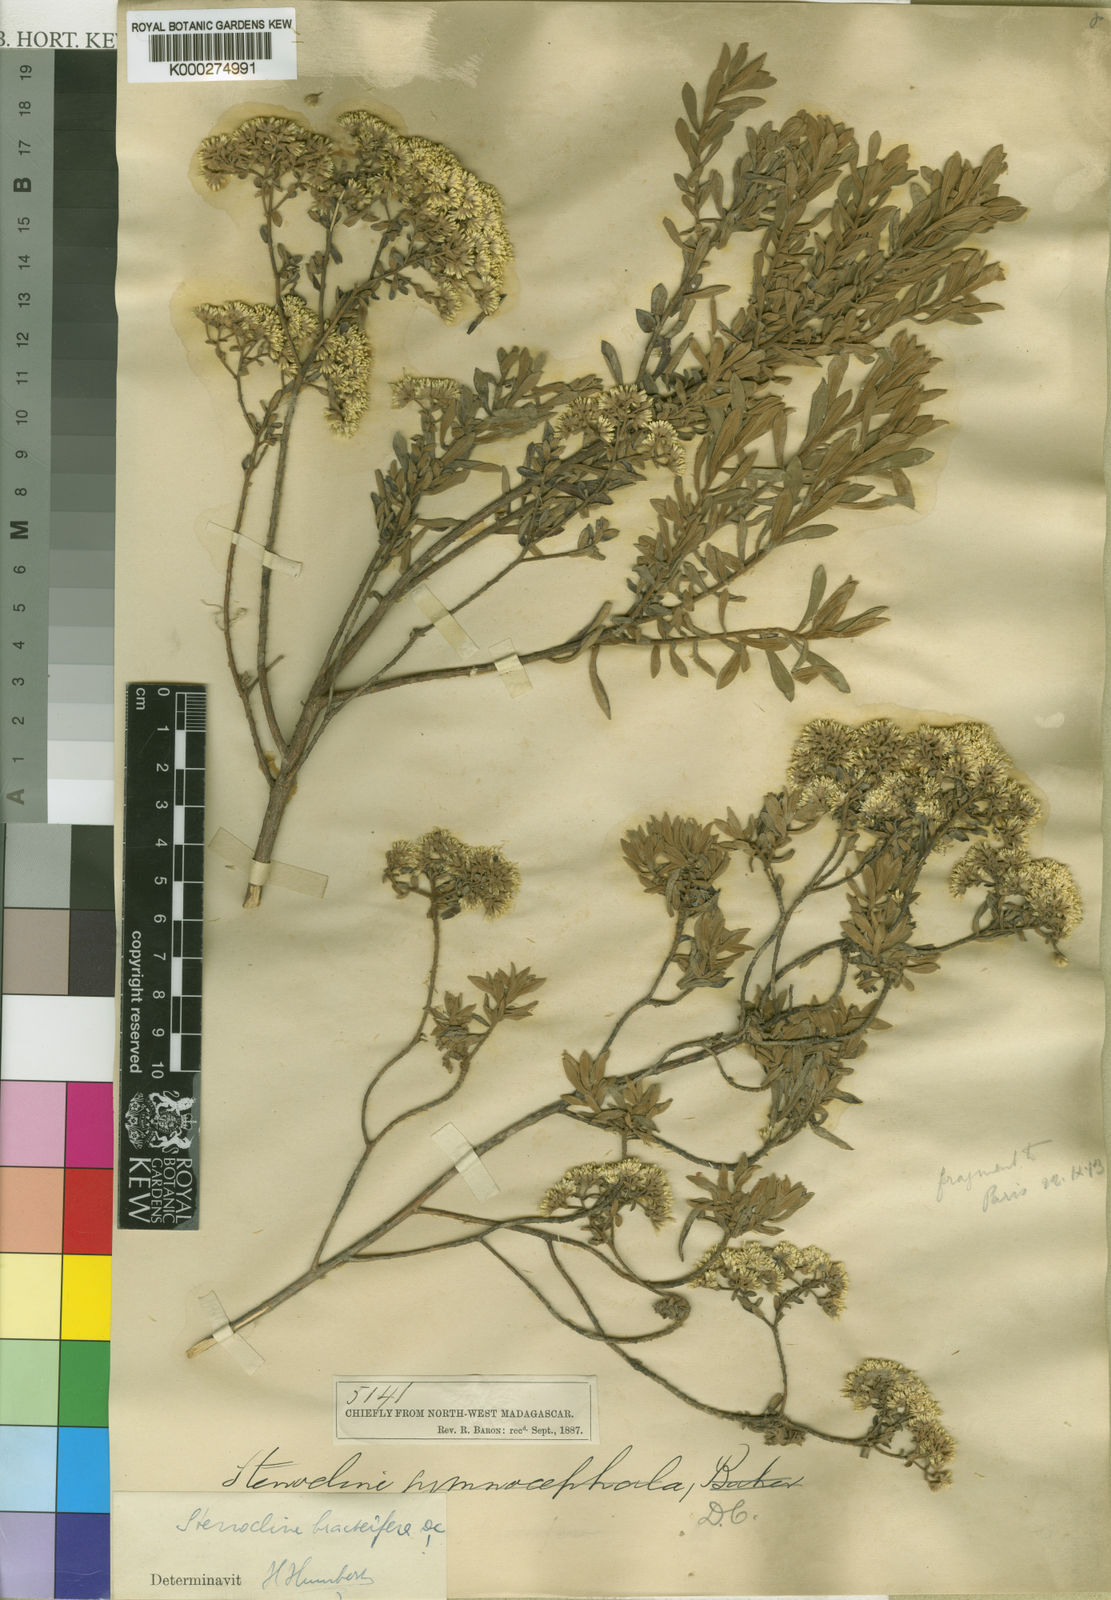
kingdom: Plantae
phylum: Tracheophyta
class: Magnoliopsida
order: Asterales
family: Asteraceae
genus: Helichrysum
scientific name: Helichrysum gymnocephalum
